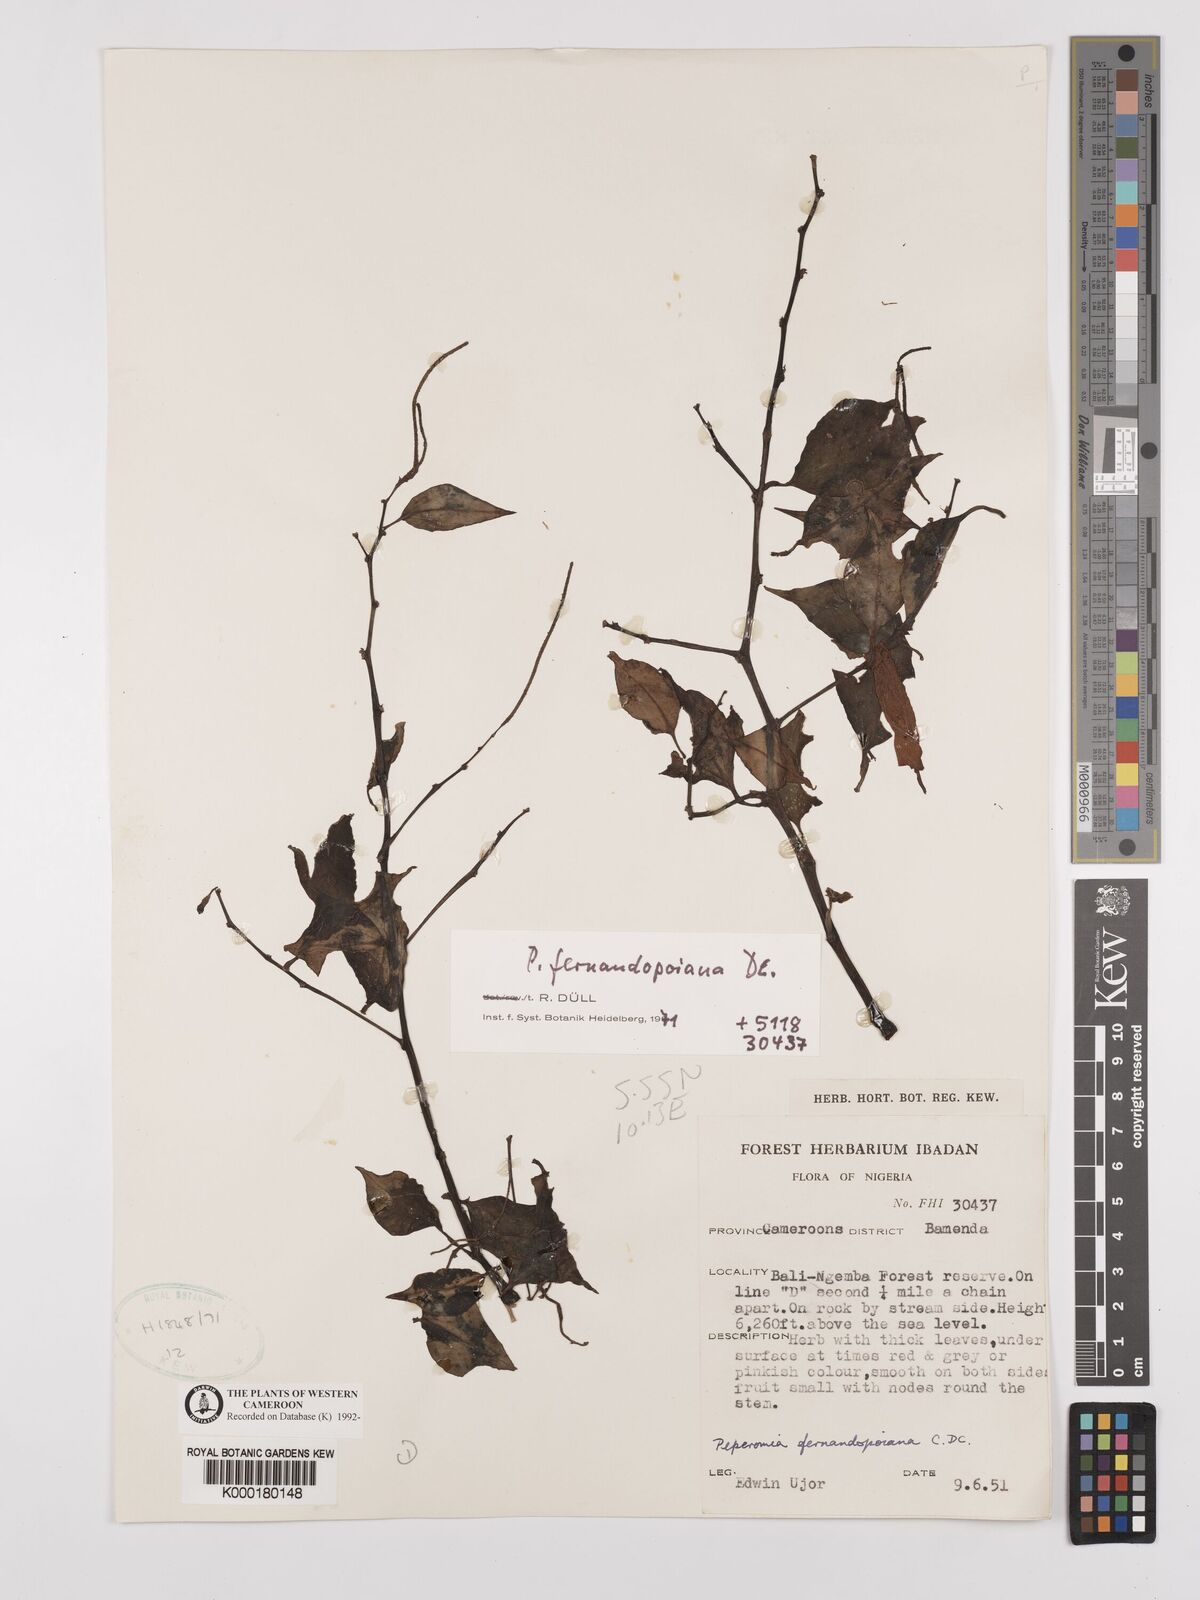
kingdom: Plantae
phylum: Tracheophyta
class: Magnoliopsida
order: Piperales
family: Piperaceae
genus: Peperomia
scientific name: Peperomia fernandopoiana
